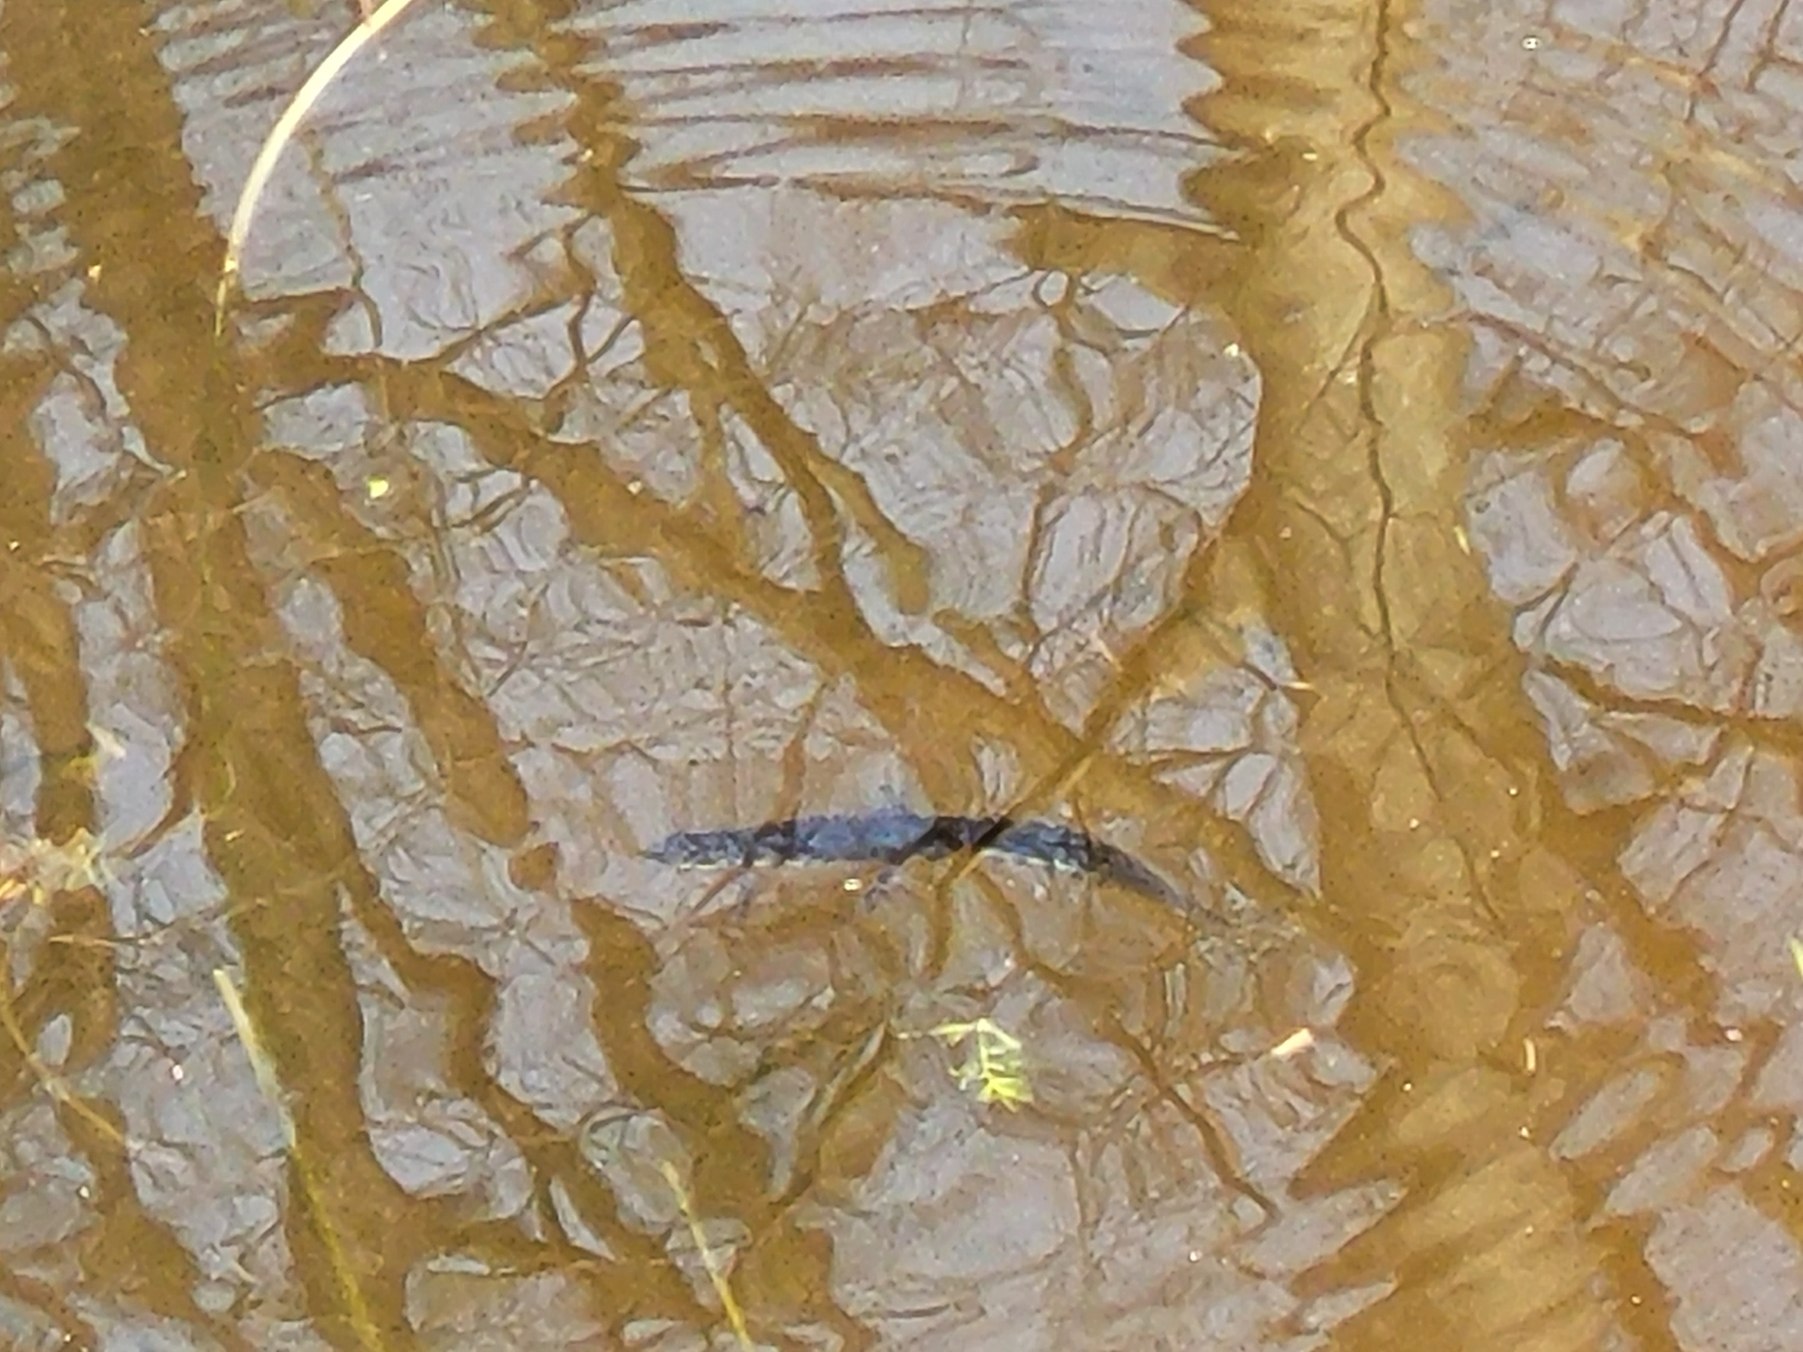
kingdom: Animalia
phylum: Chordata
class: Amphibia
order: Caudata
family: Salamandridae
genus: Lissotriton
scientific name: Lissotriton vulgaris
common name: Lille vandsalamander
